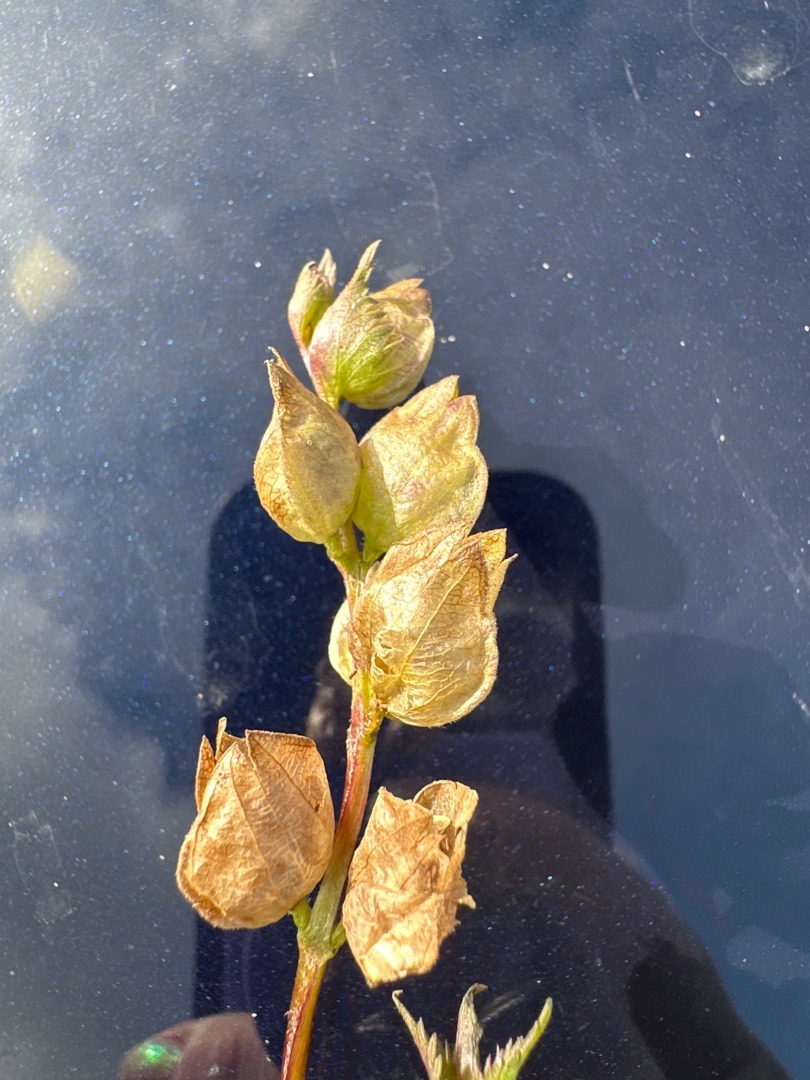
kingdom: Plantae
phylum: Tracheophyta
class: Magnoliopsida
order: Lamiales
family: Orobanchaceae
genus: Rhinanthus
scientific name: Rhinanthus minor
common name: Liden skjaller
